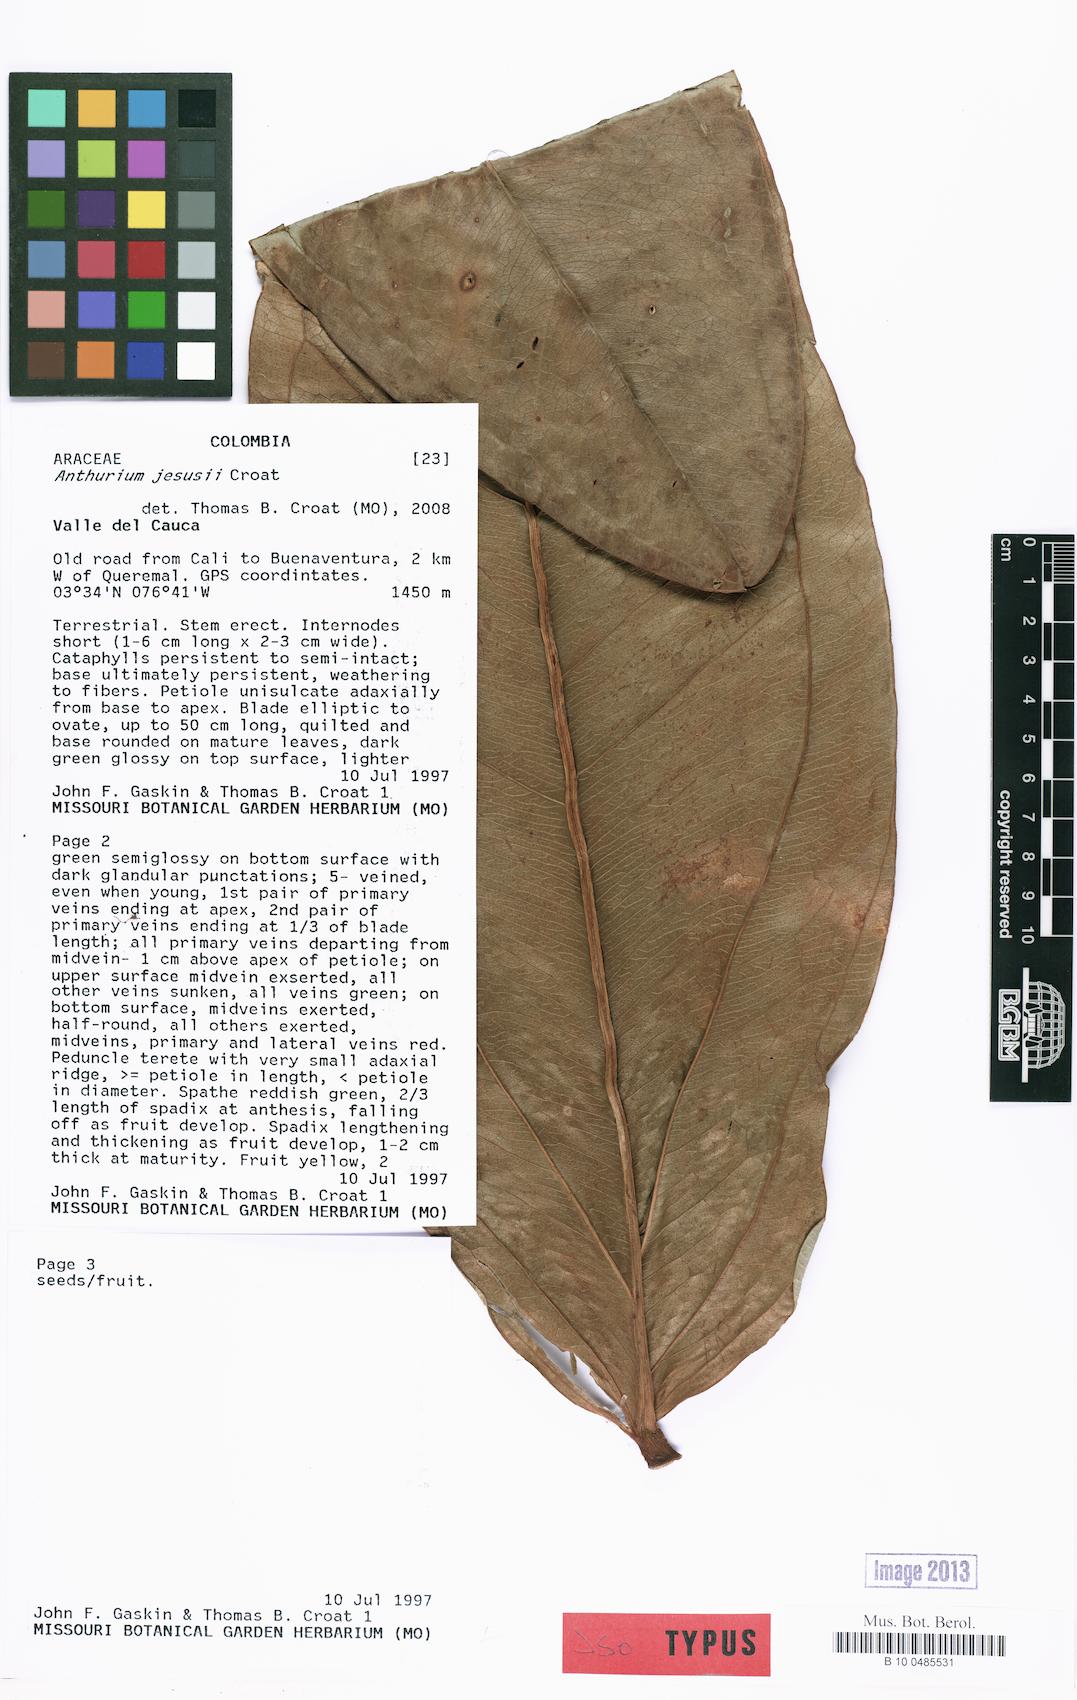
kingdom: Plantae
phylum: Tracheophyta
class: Liliopsida
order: Alismatales
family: Araceae
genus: Anthurium
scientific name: Anthurium jesusii
